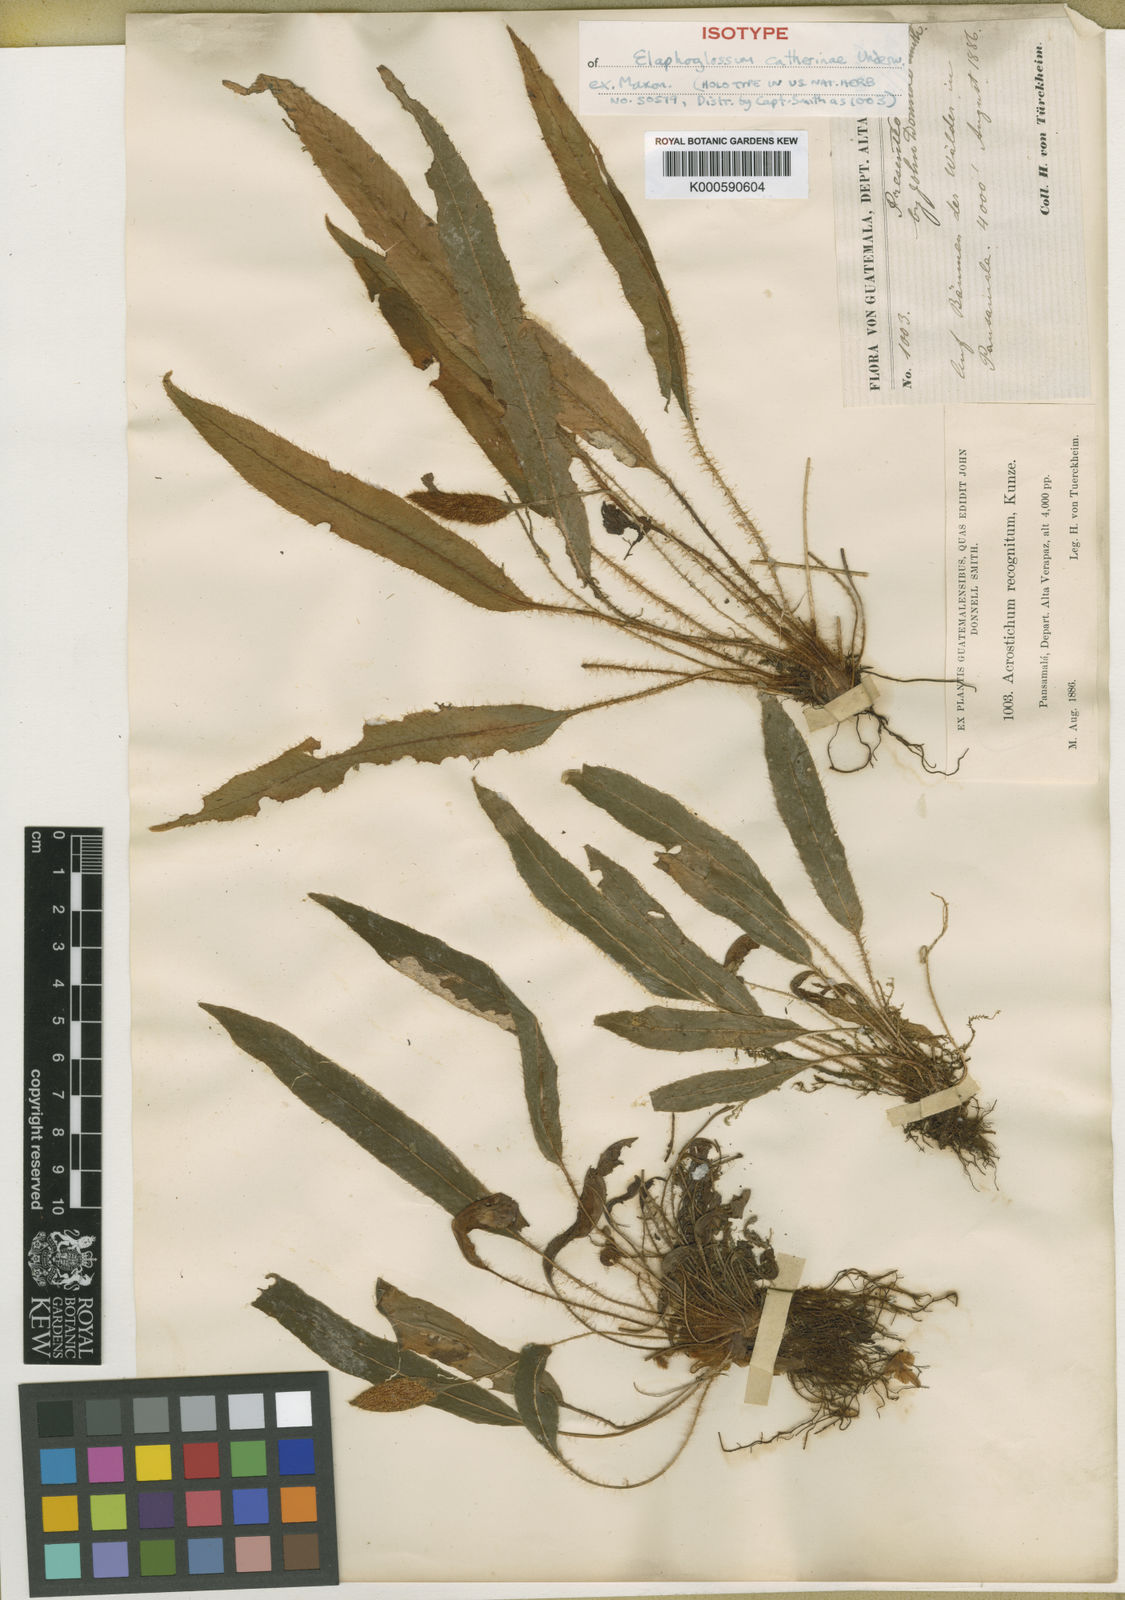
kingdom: Plantae
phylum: Tracheophyta
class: Polypodiopsida
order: Polypodiales
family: Dryopteridaceae
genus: Elaphoglossum
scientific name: Elaphoglossum
